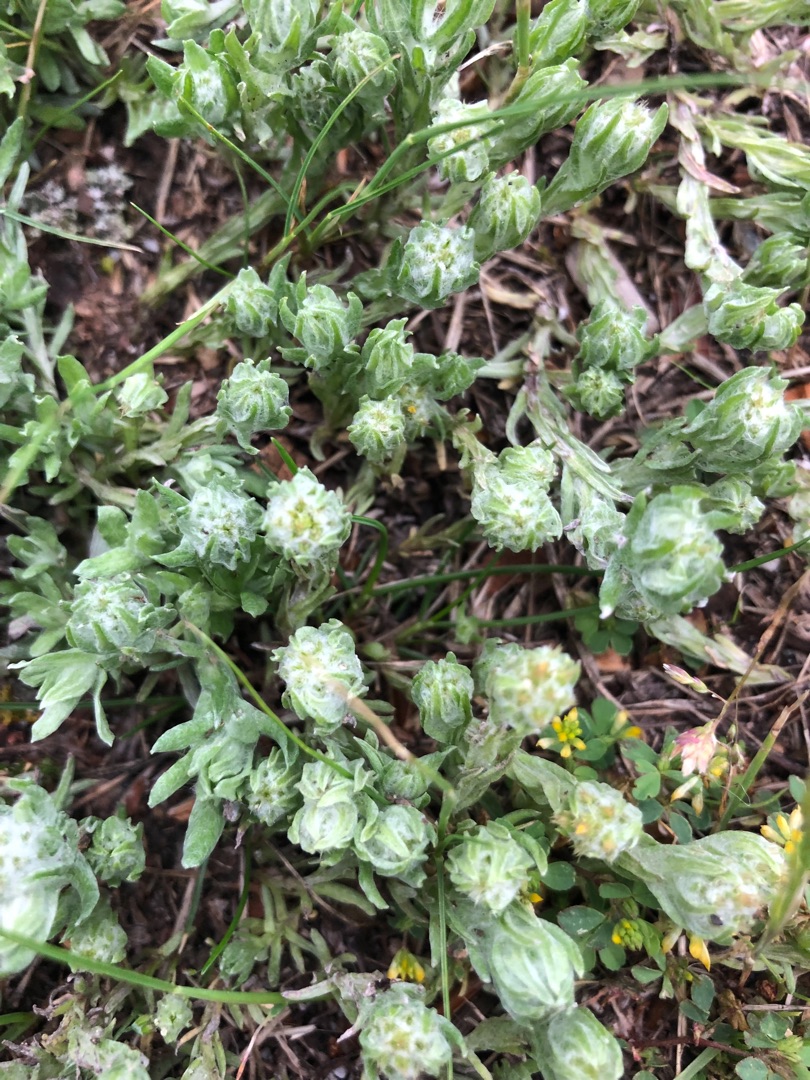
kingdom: Plantae
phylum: Tracheophyta
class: Magnoliopsida
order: Asterales
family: Asteraceae
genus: Filago
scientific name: Filago germanica
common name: Kugle-museurt
